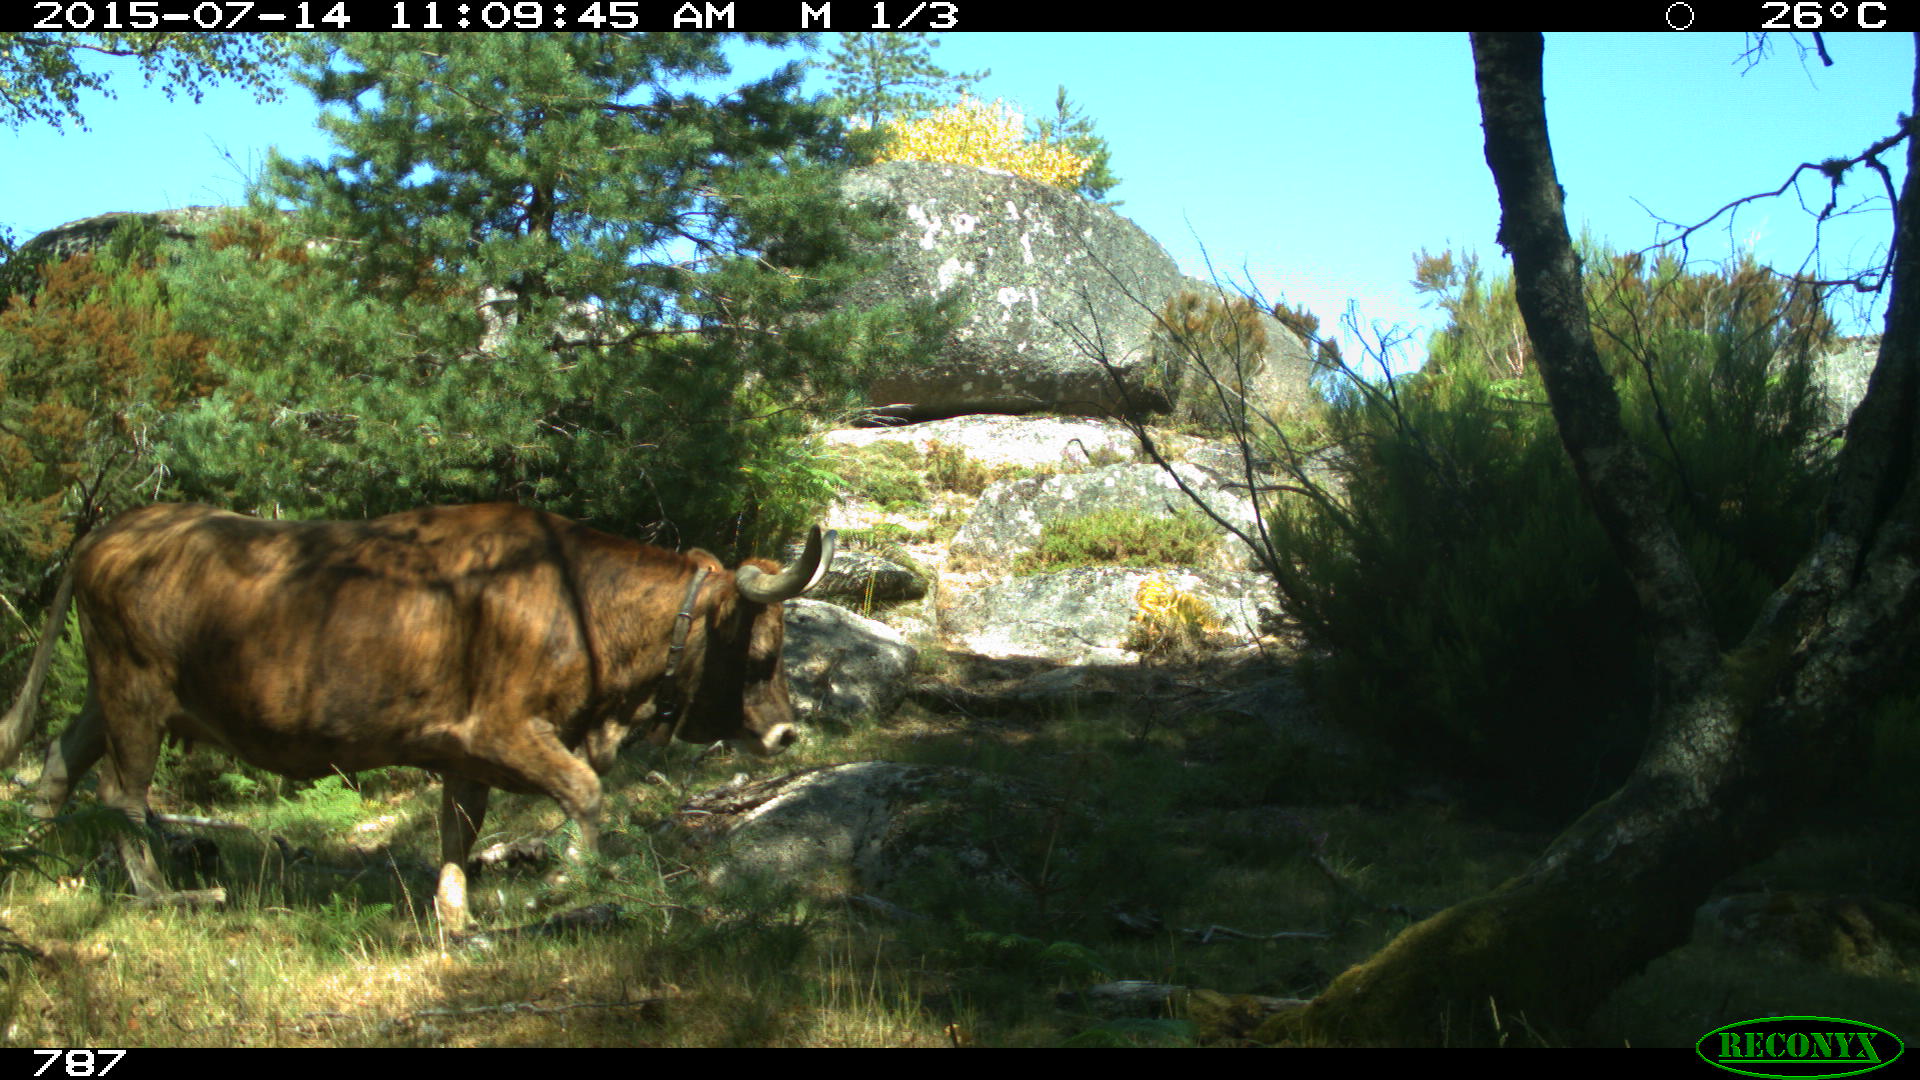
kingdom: Animalia
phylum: Chordata
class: Mammalia
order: Artiodactyla
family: Bovidae
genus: Bos
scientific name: Bos taurus
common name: Domesticated cattle
